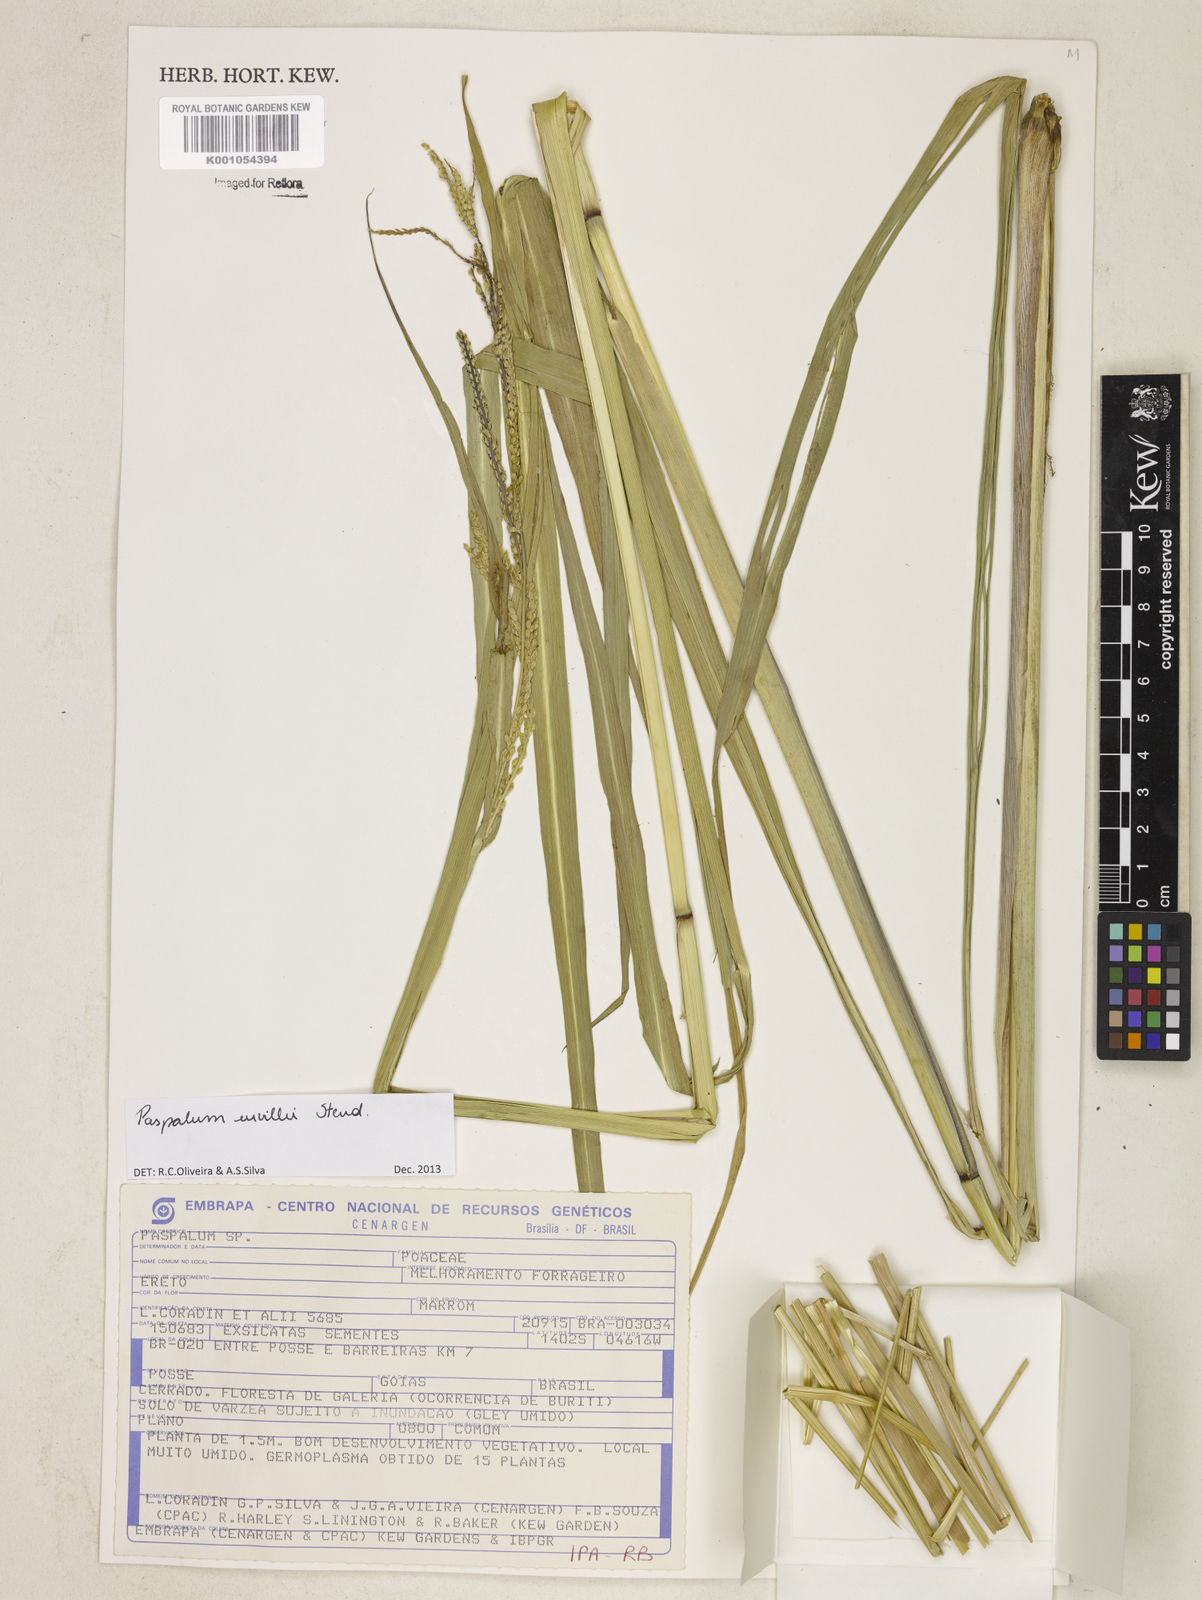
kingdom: Plantae
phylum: Tracheophyta
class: Liliopsida
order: Poales
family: Poaceae
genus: Paspalum
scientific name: Paspalum urvillei
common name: Vasey's grass
